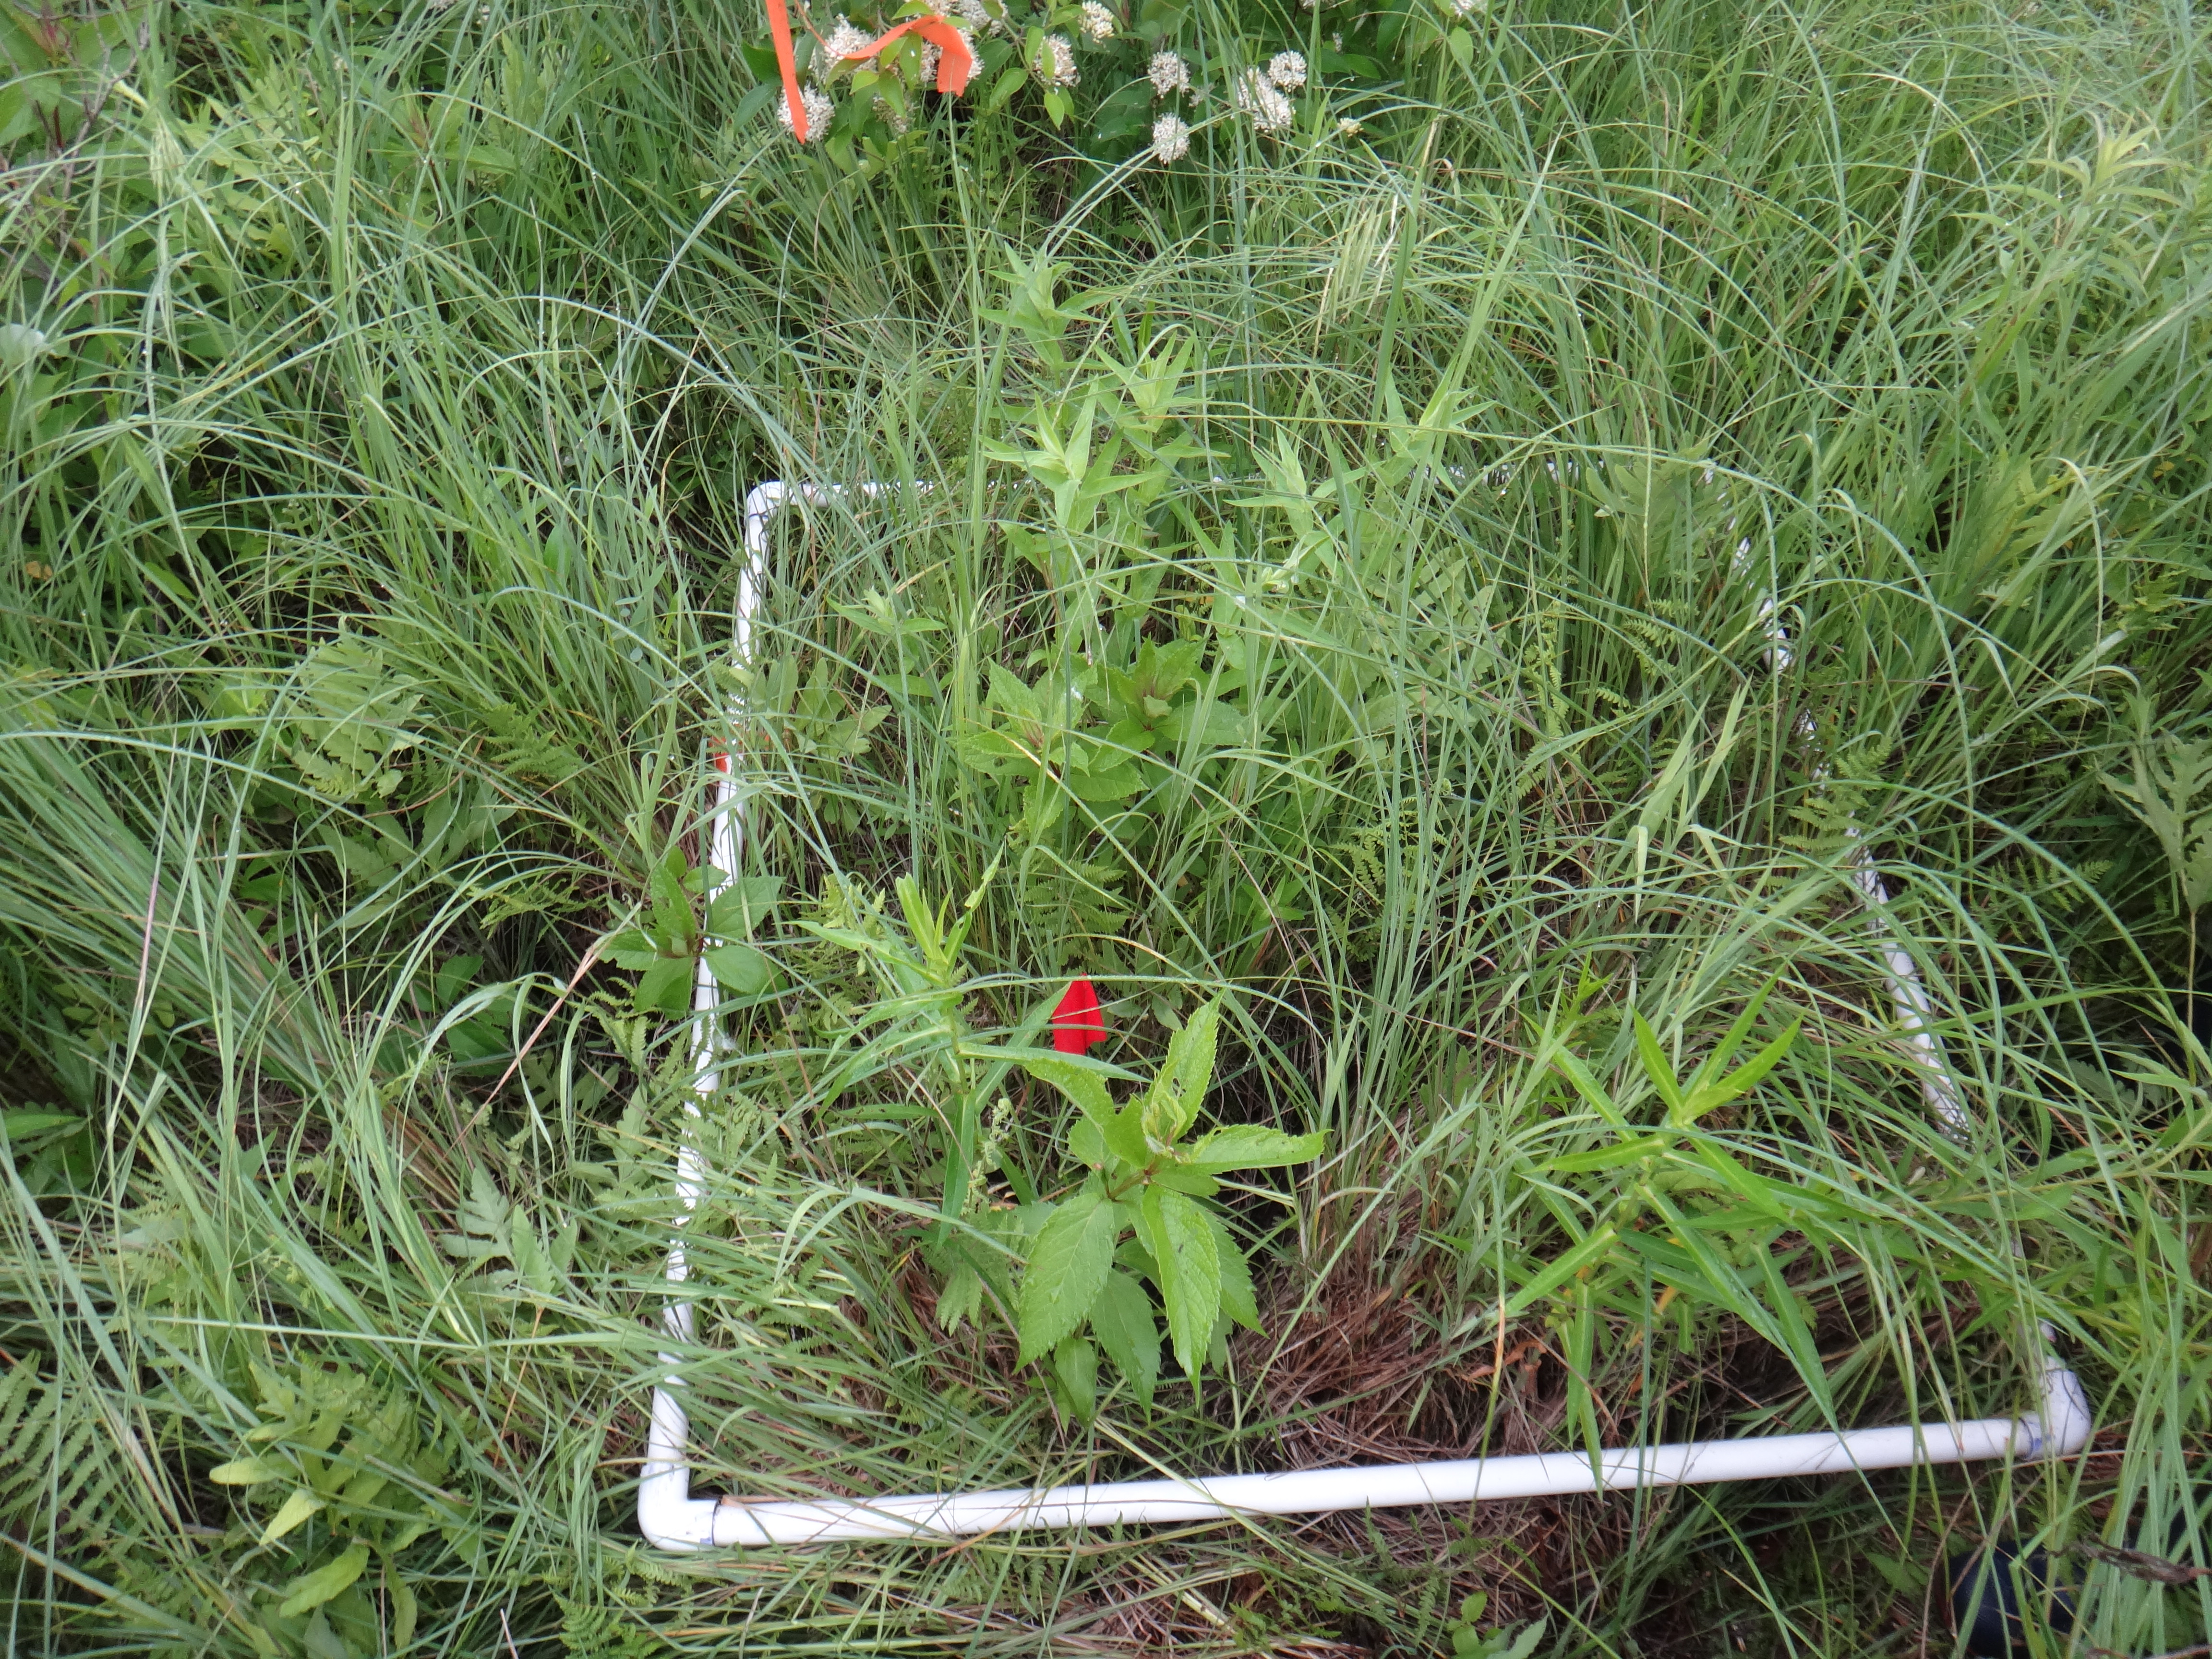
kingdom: Plantae
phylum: Tracheophyta
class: Magnoliopsida
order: Lamiales
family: Lamiaceae
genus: Lycopus
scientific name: Lycopus americanus
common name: American bugleweed
